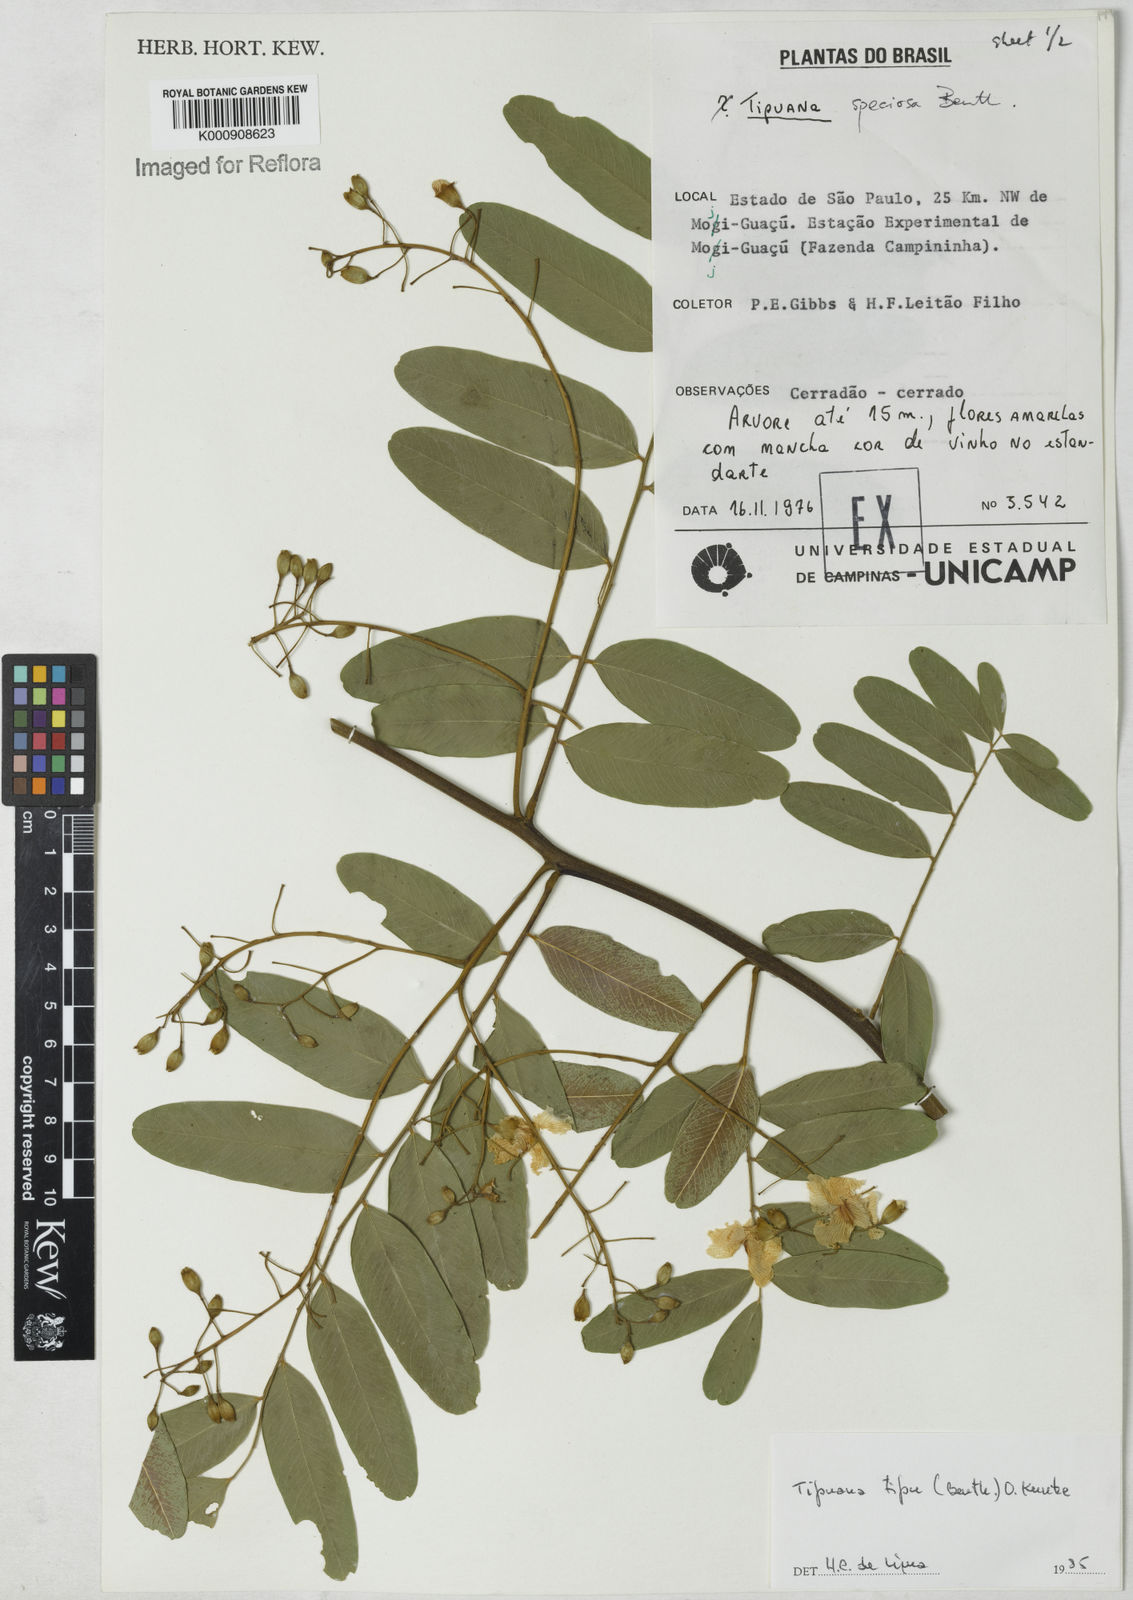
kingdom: Plantae
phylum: Tracheophyta
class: Magnoliopsida
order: Fabales
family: Fabaceae
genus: Tipuana
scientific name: Tipuana tipu
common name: Tiputree
